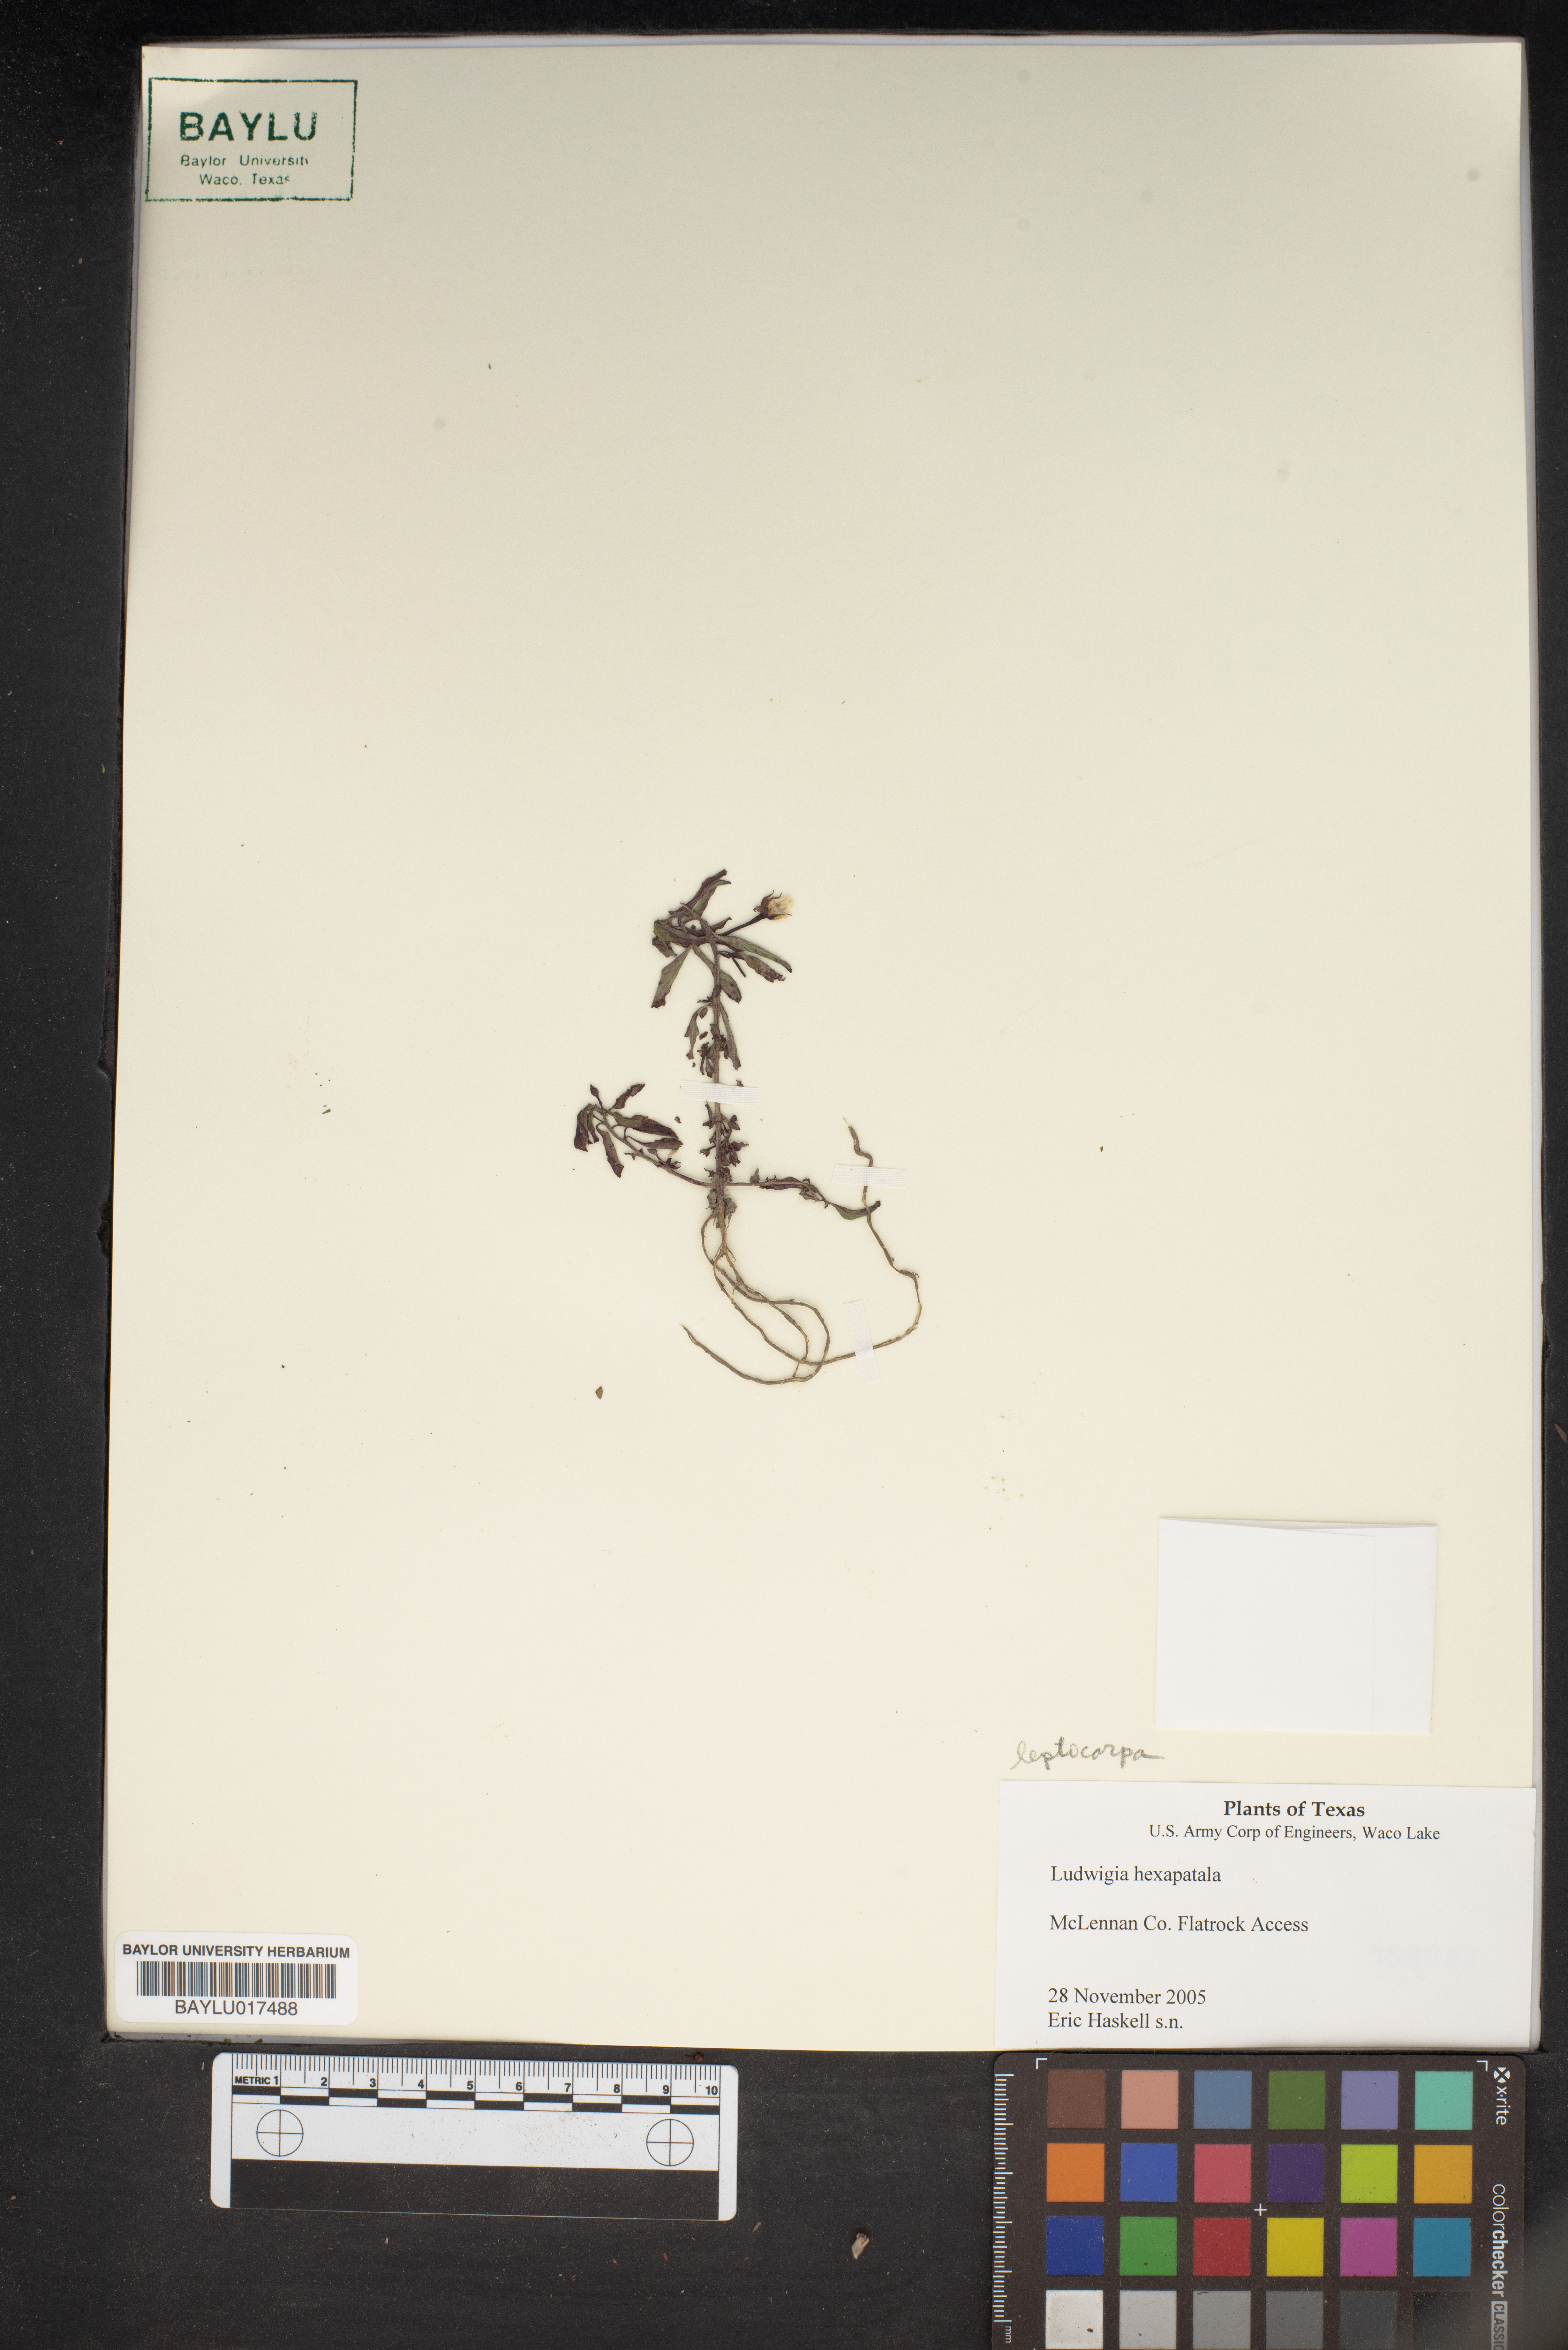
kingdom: Plantae
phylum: Tracheophyta
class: Magnoliopsida
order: Myrtales
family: Onagraceae
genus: Ludwigia
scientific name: Ludwigia hexapetala
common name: Water-primrose
